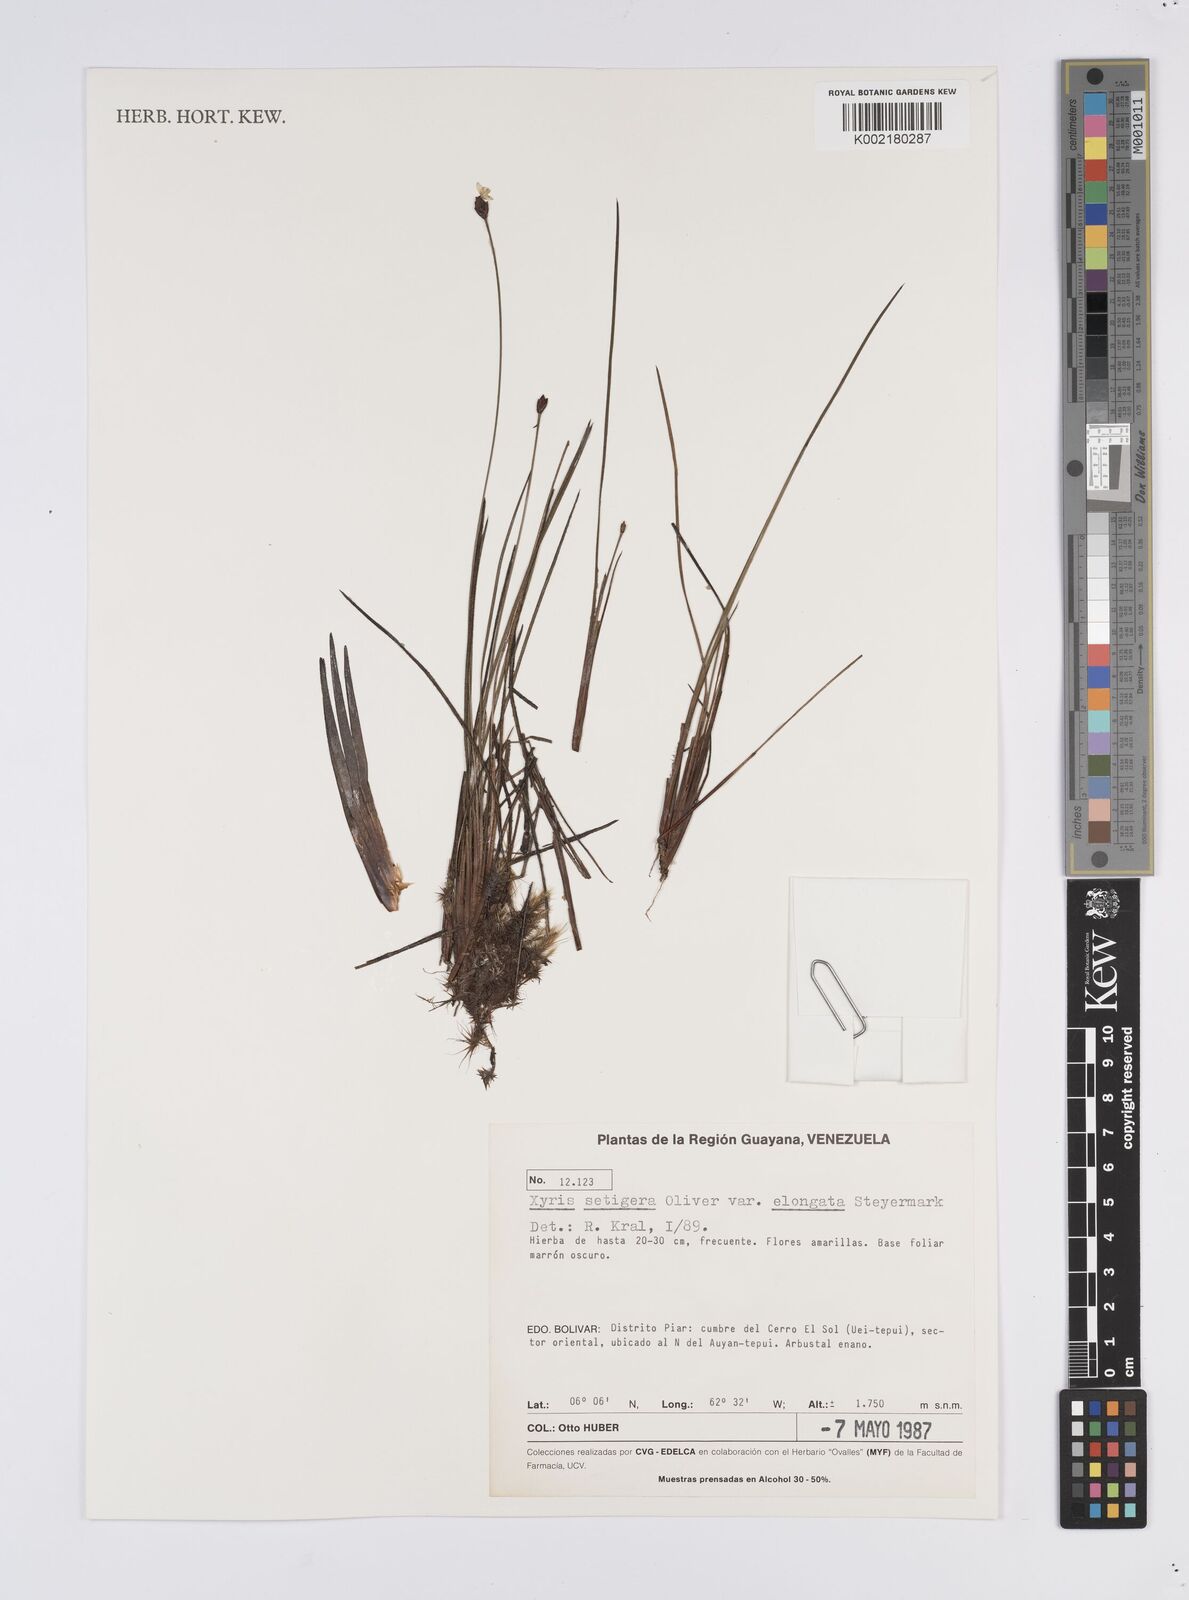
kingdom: Plantae
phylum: Tracheophyta
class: Liliopsida
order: Poales
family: Xyridaceae
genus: Xyris
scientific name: Xyris setigera
